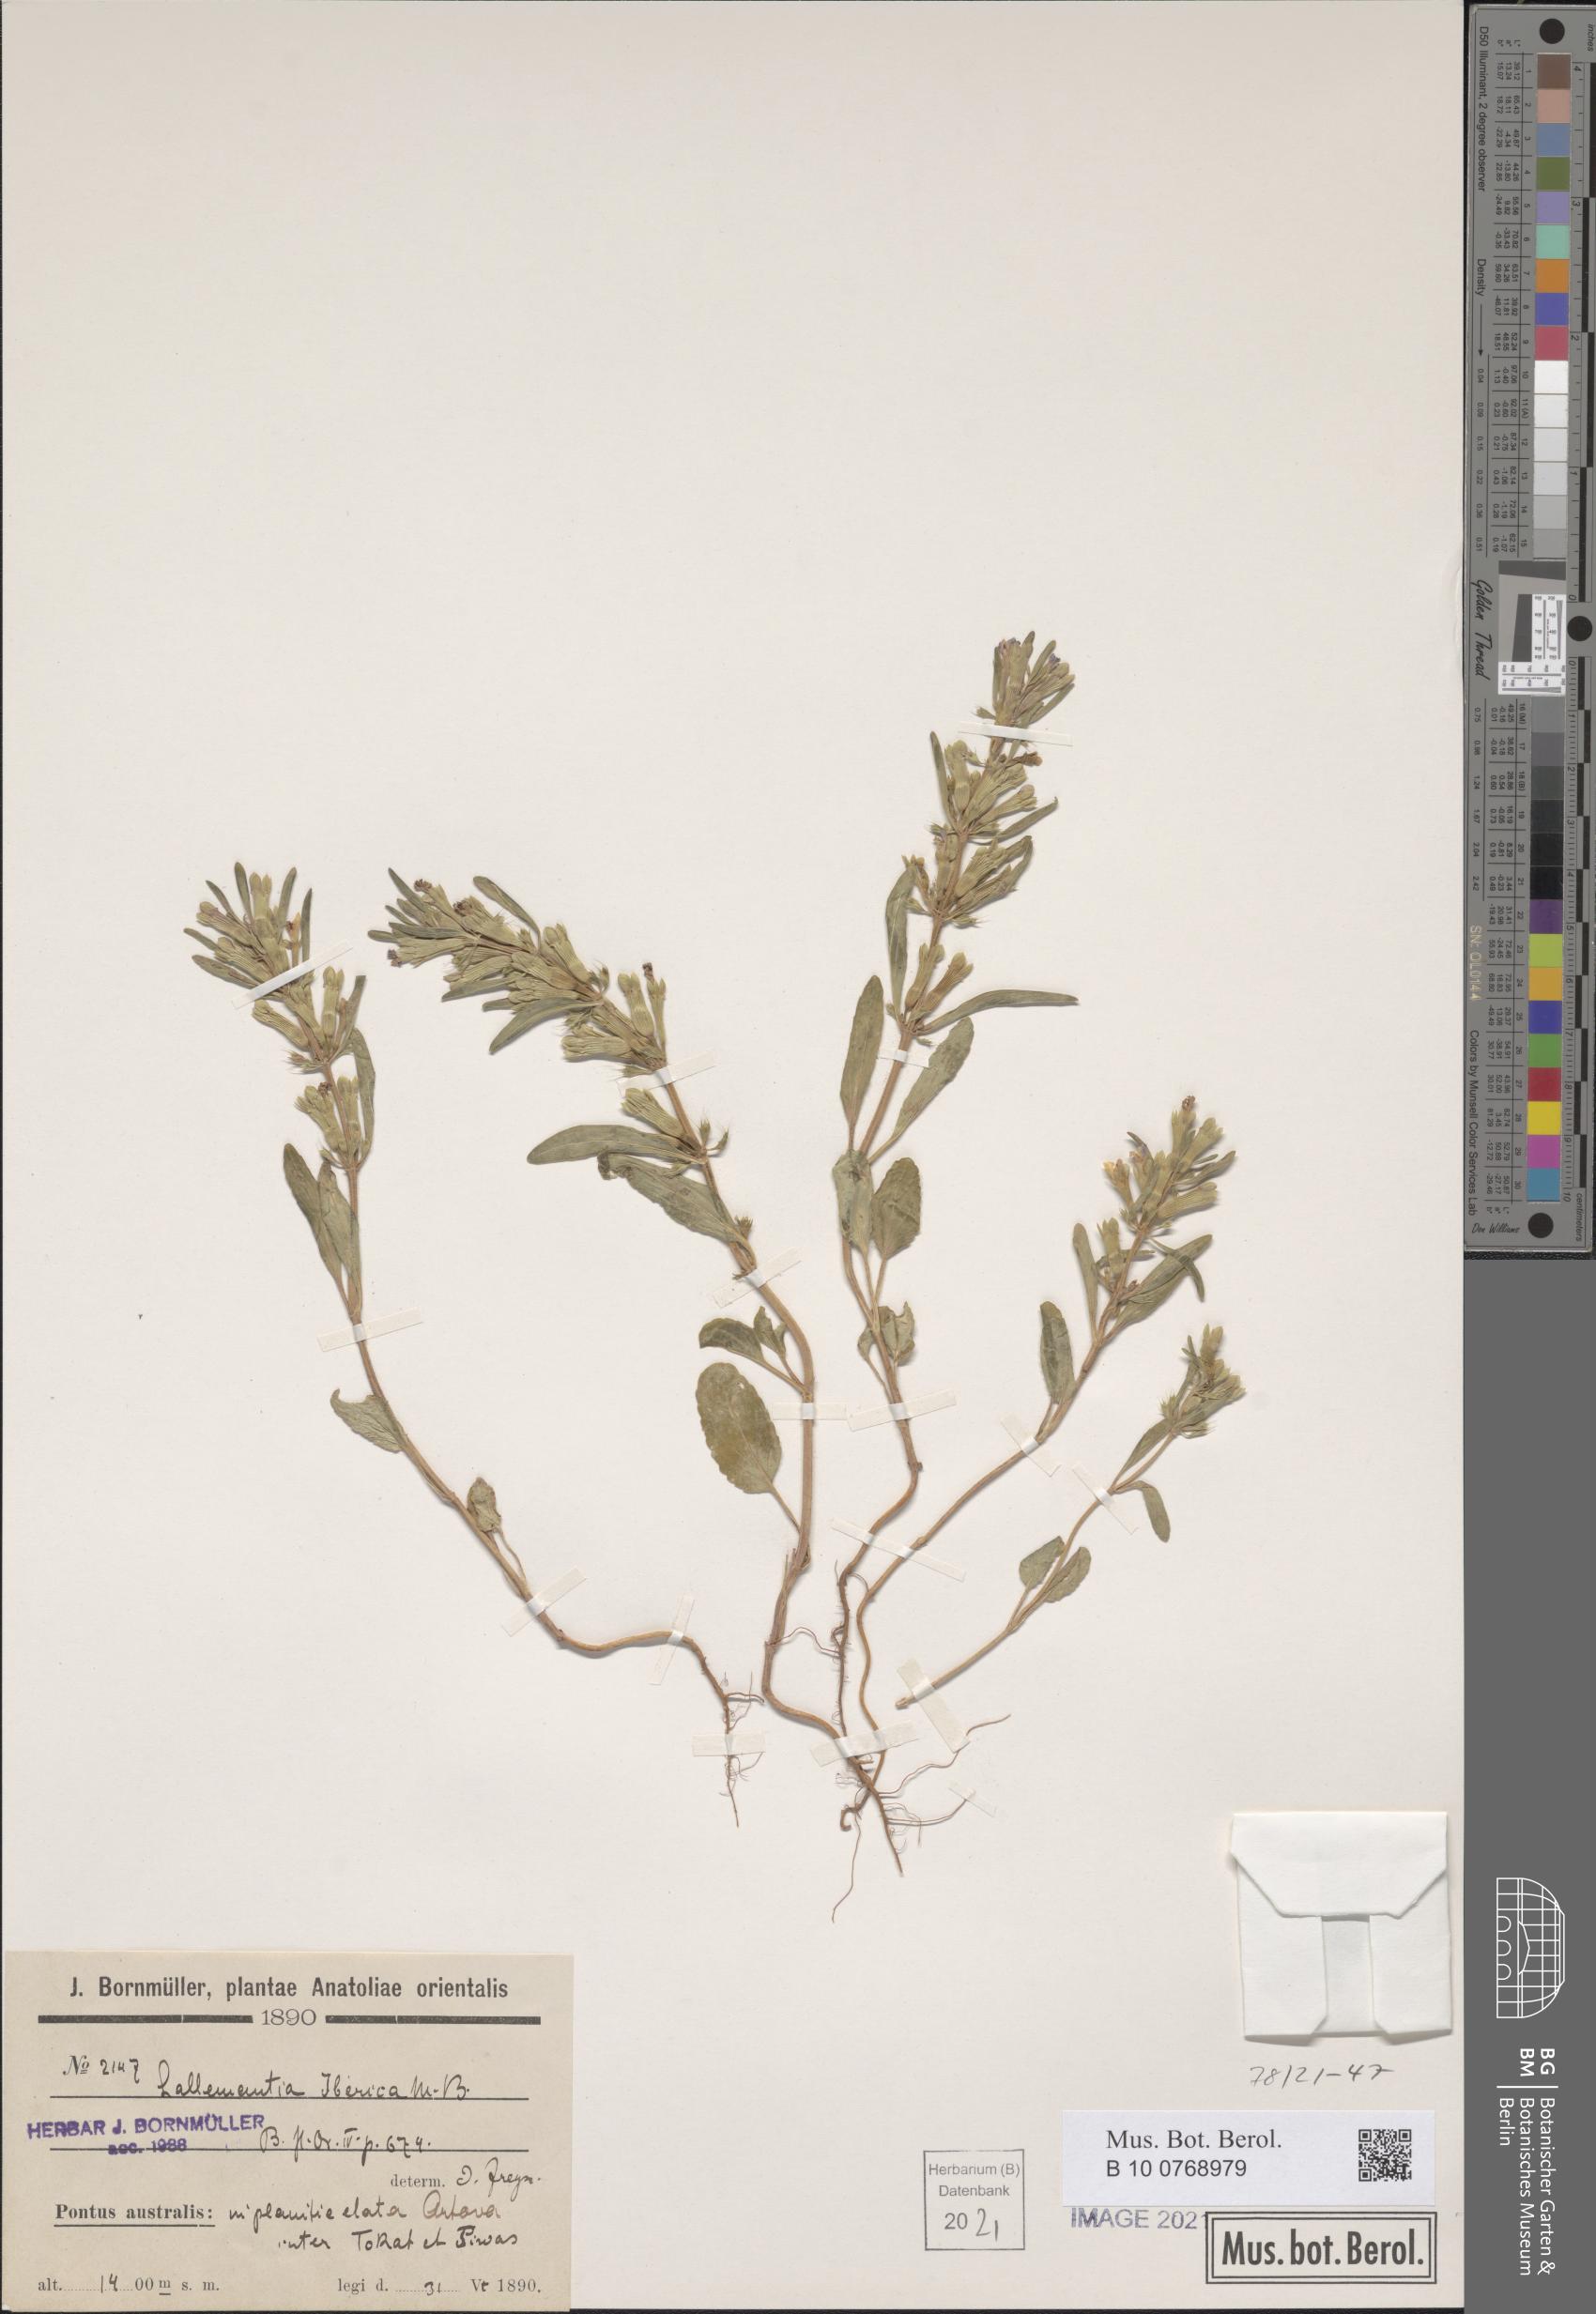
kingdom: Plantae
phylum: Tracheophyta
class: Magnoliopsida
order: Lamiales
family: Lamiaceae
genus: Lallemantia
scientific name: Lallemantia iberica
